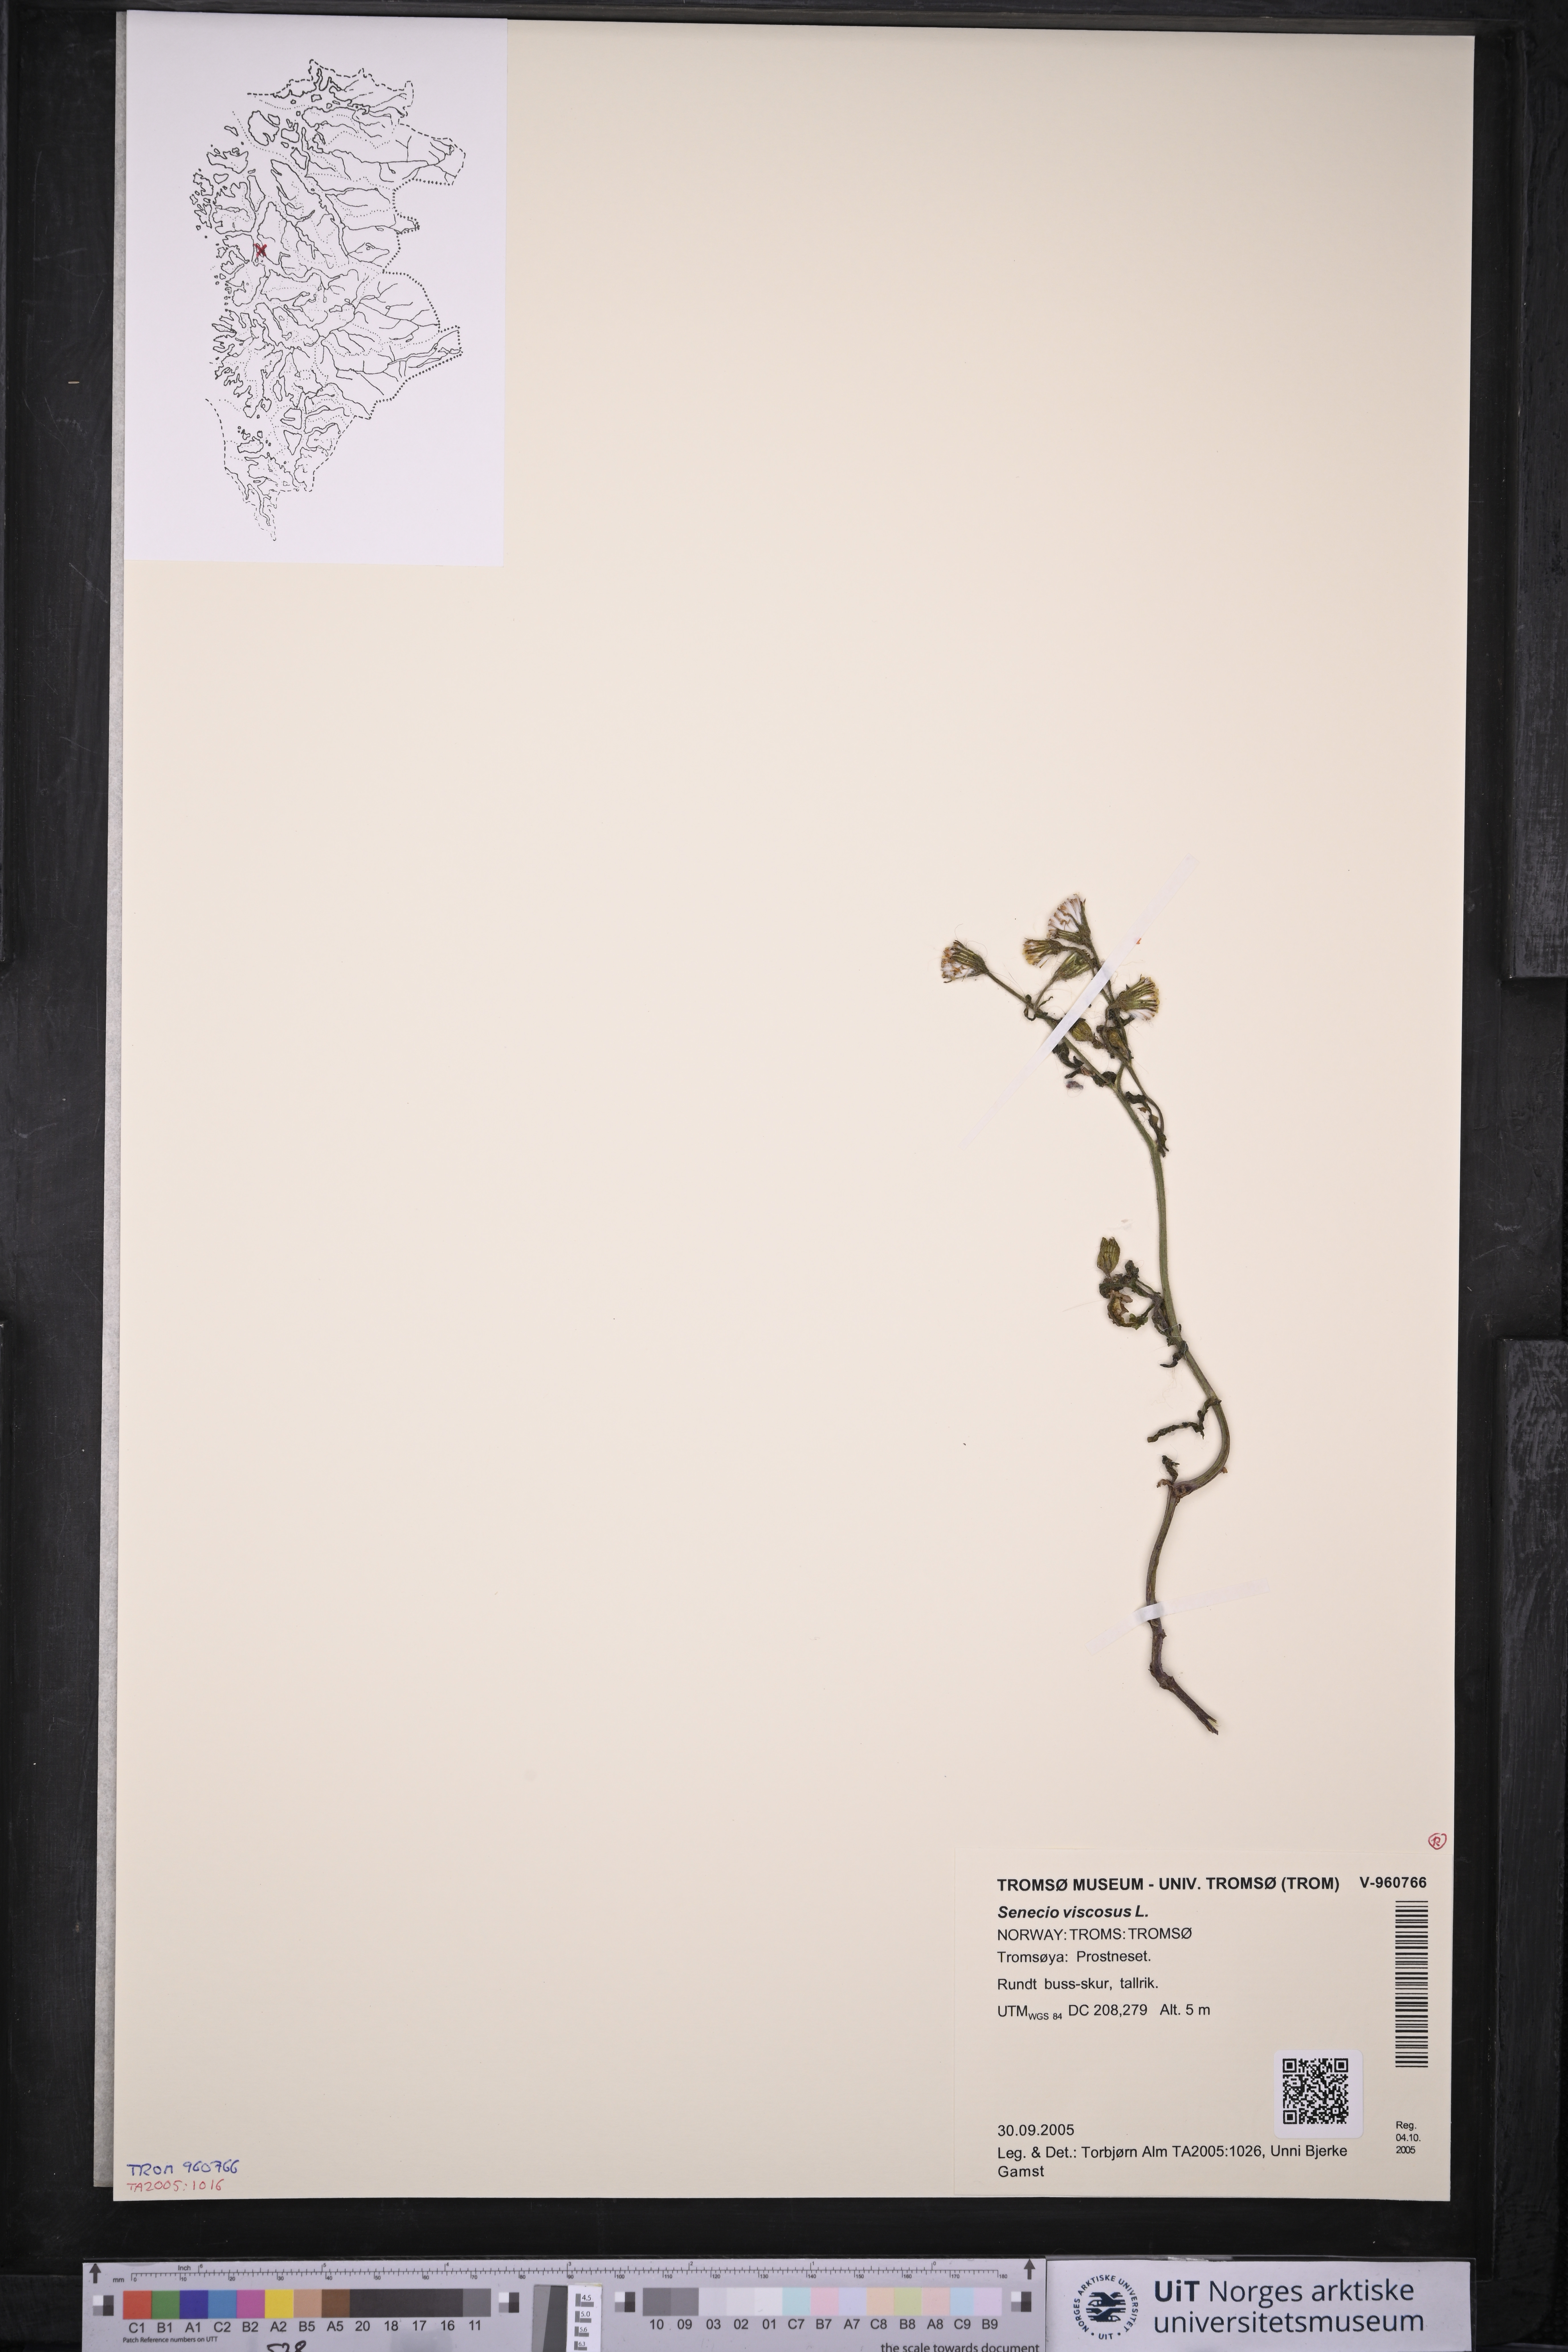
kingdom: Plantae
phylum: Tracheophyta
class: Magnoliopsida
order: Asterales
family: Asteraceae
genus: Senecio
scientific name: Senecio viscosus
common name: Sticky groundsel
